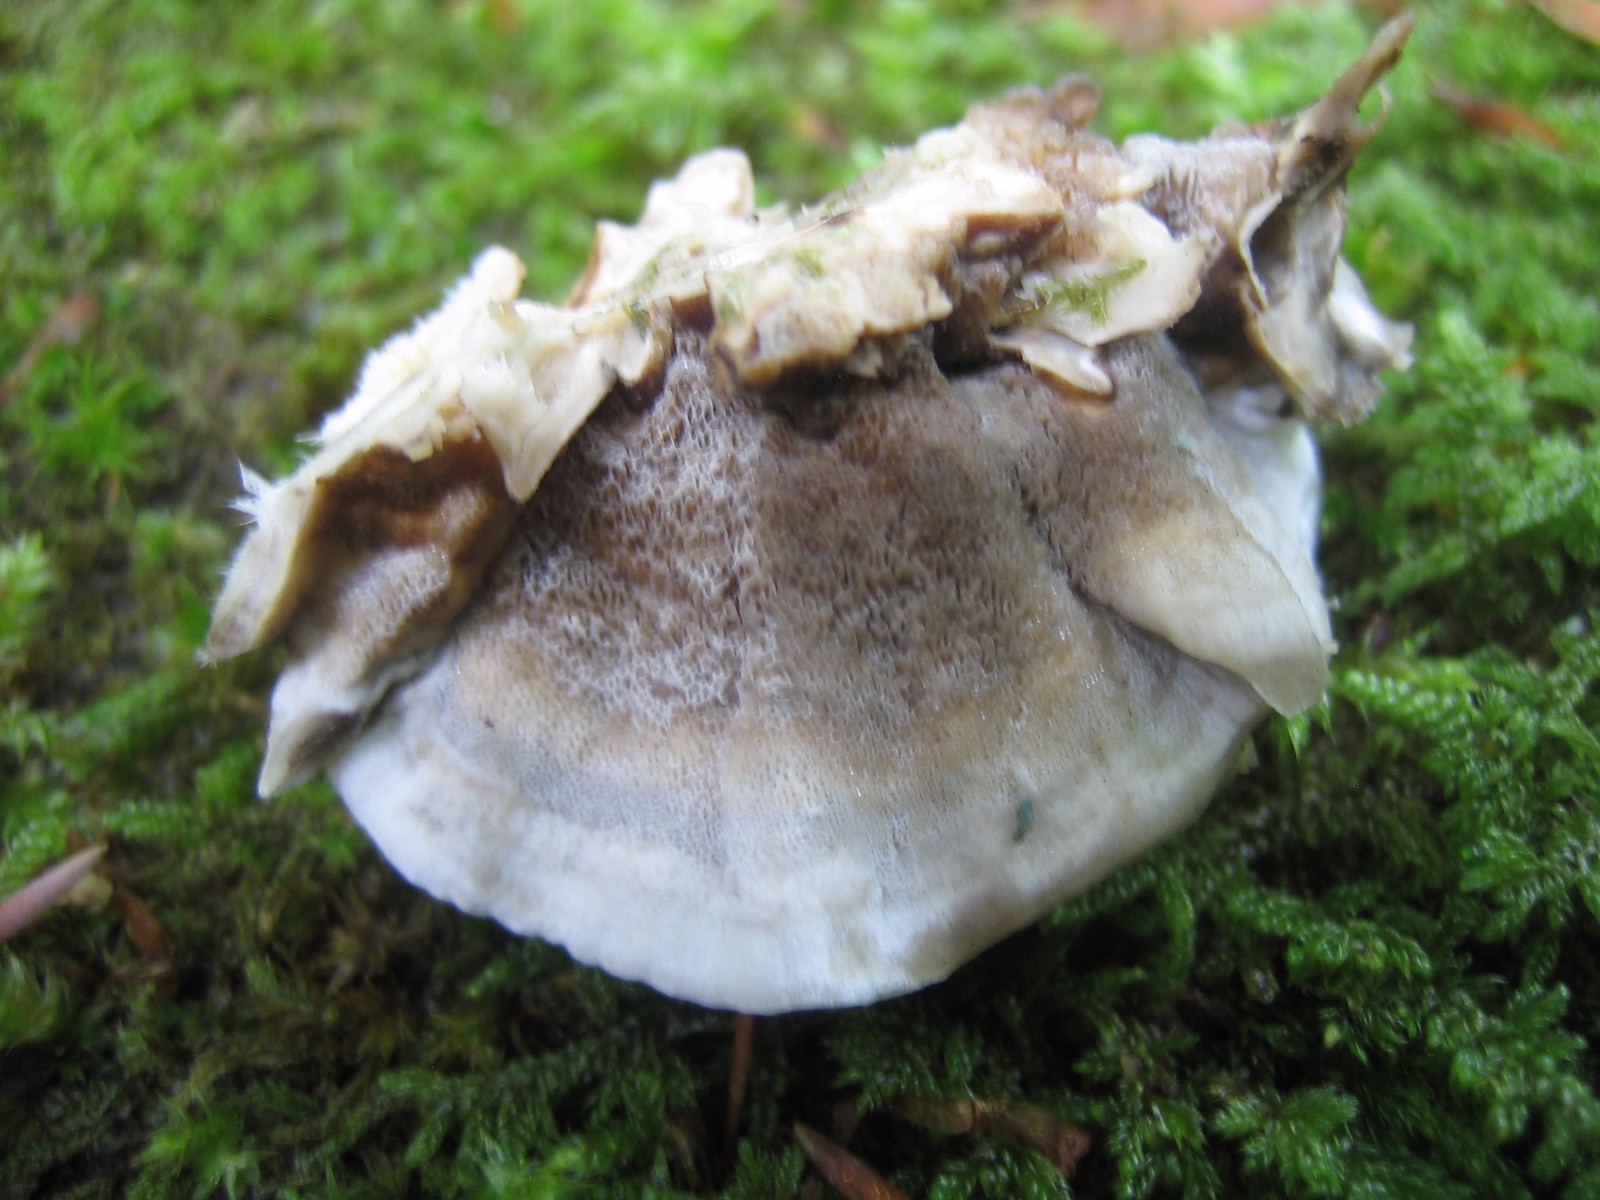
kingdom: Fungi
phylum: Basidiomycota
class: Agaricomycetes
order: Polyporales
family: Phanerochaetaceae
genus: Bjerkandera
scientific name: Bjerkandera adusta
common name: sveden sodporesvamp
